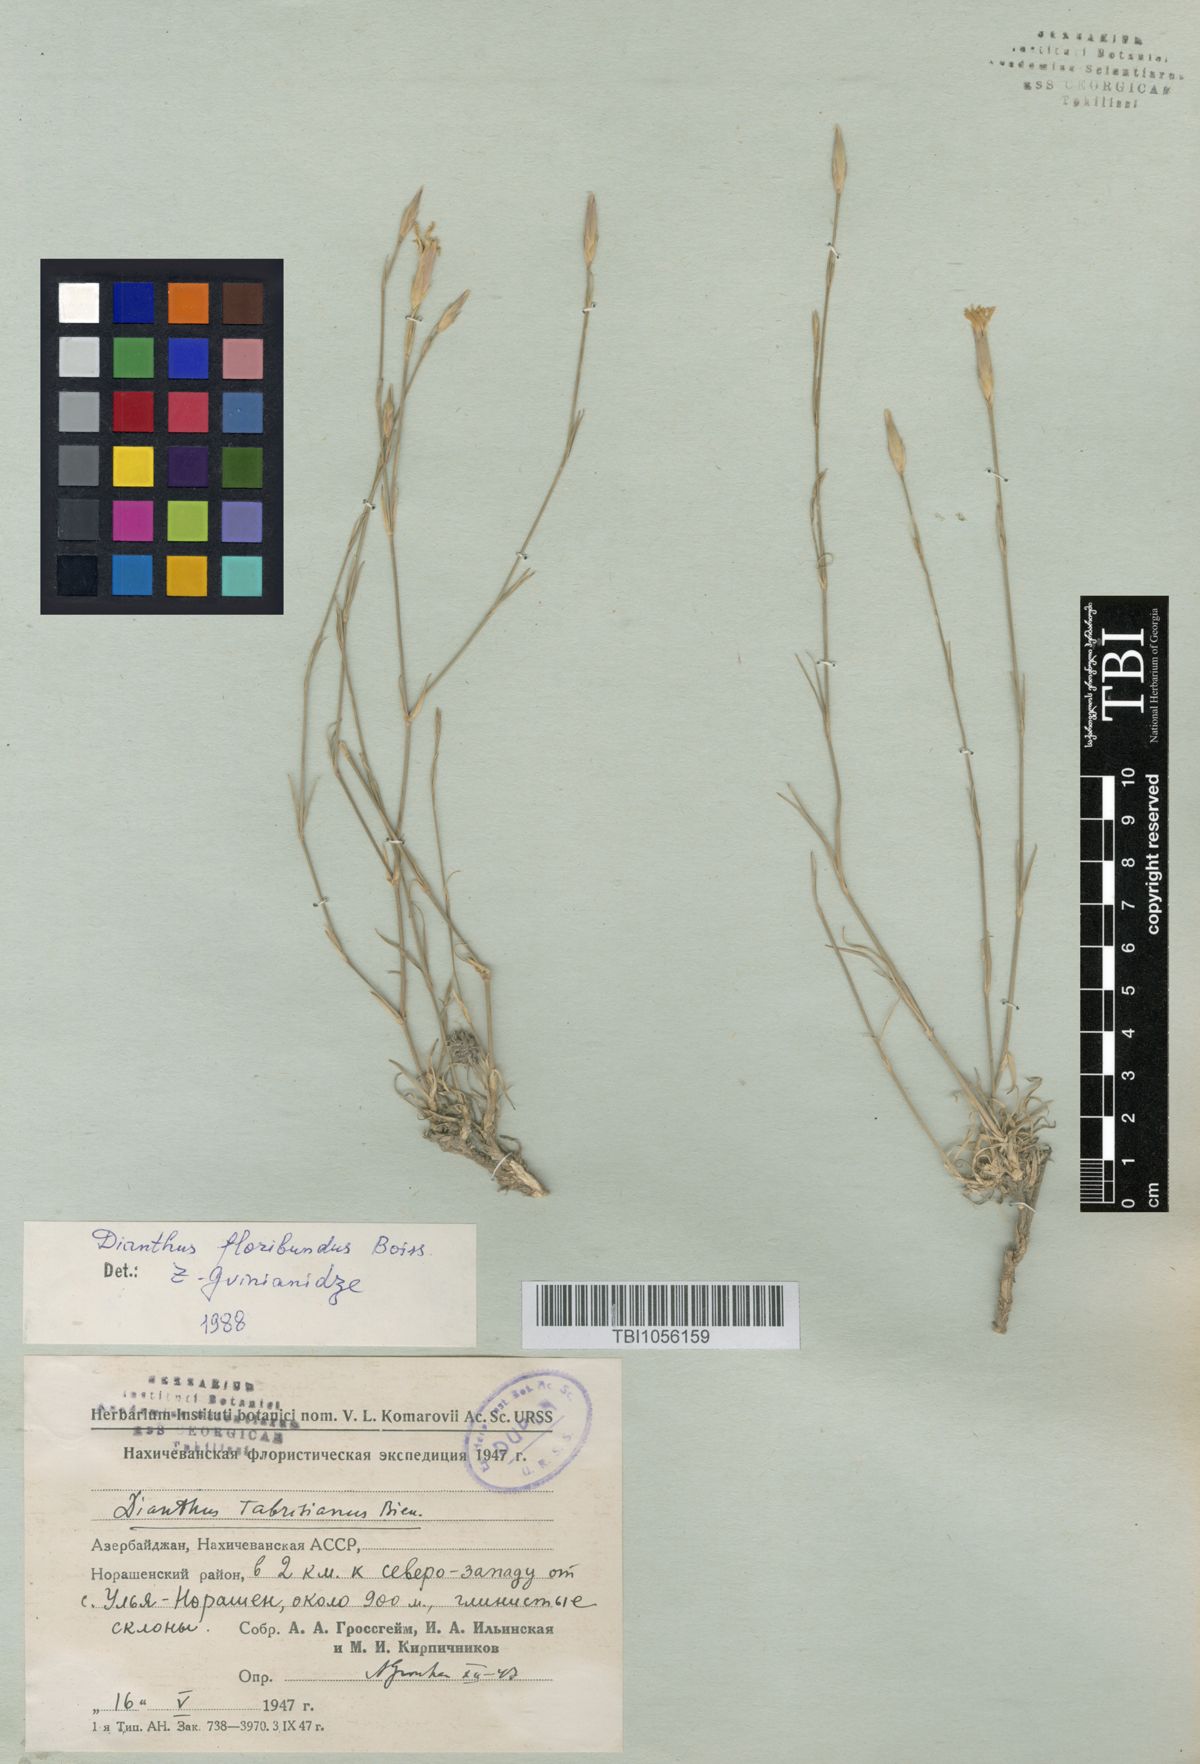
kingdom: Plantae
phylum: Tracheophyta
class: Magnoliopsida
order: Caryophyllales
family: Caryophyllaceae
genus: Dianthus
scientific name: Dianthus tabrisianus
